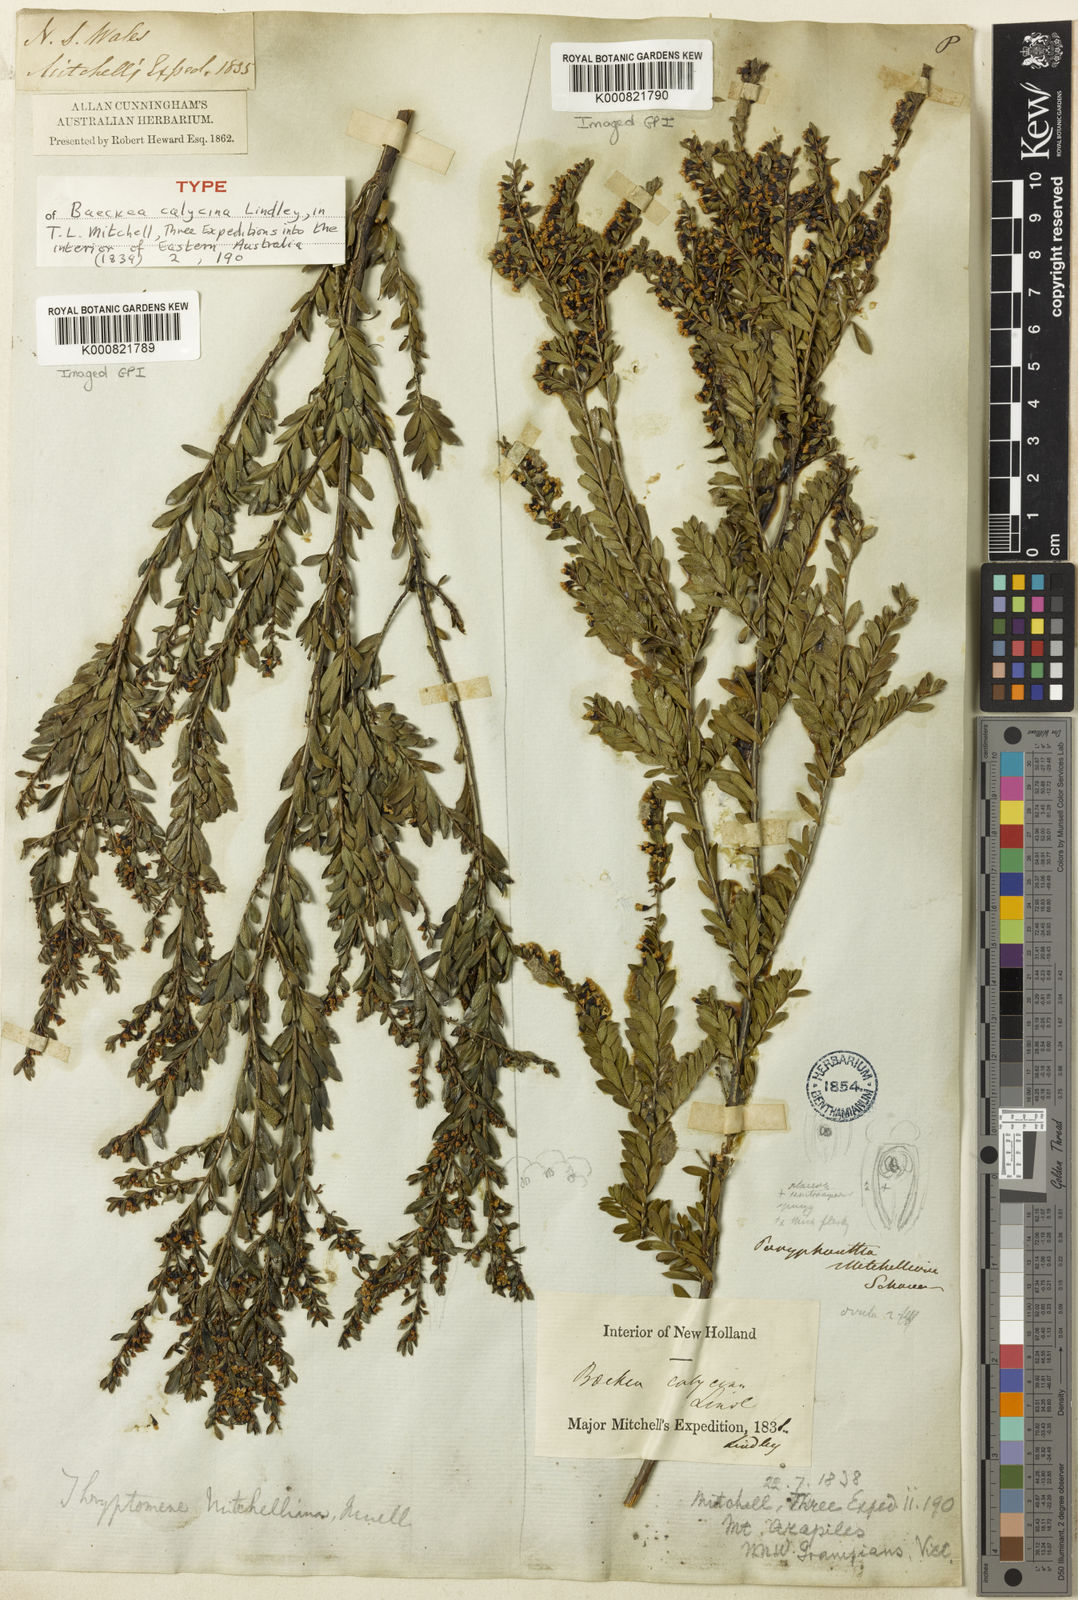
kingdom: Plantae
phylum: Tracheophyta
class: Magnoliopsida
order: Myrtales
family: Myrtaceae
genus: Thryptomene
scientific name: Thryptomene calycina
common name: Grampians thryptomene
